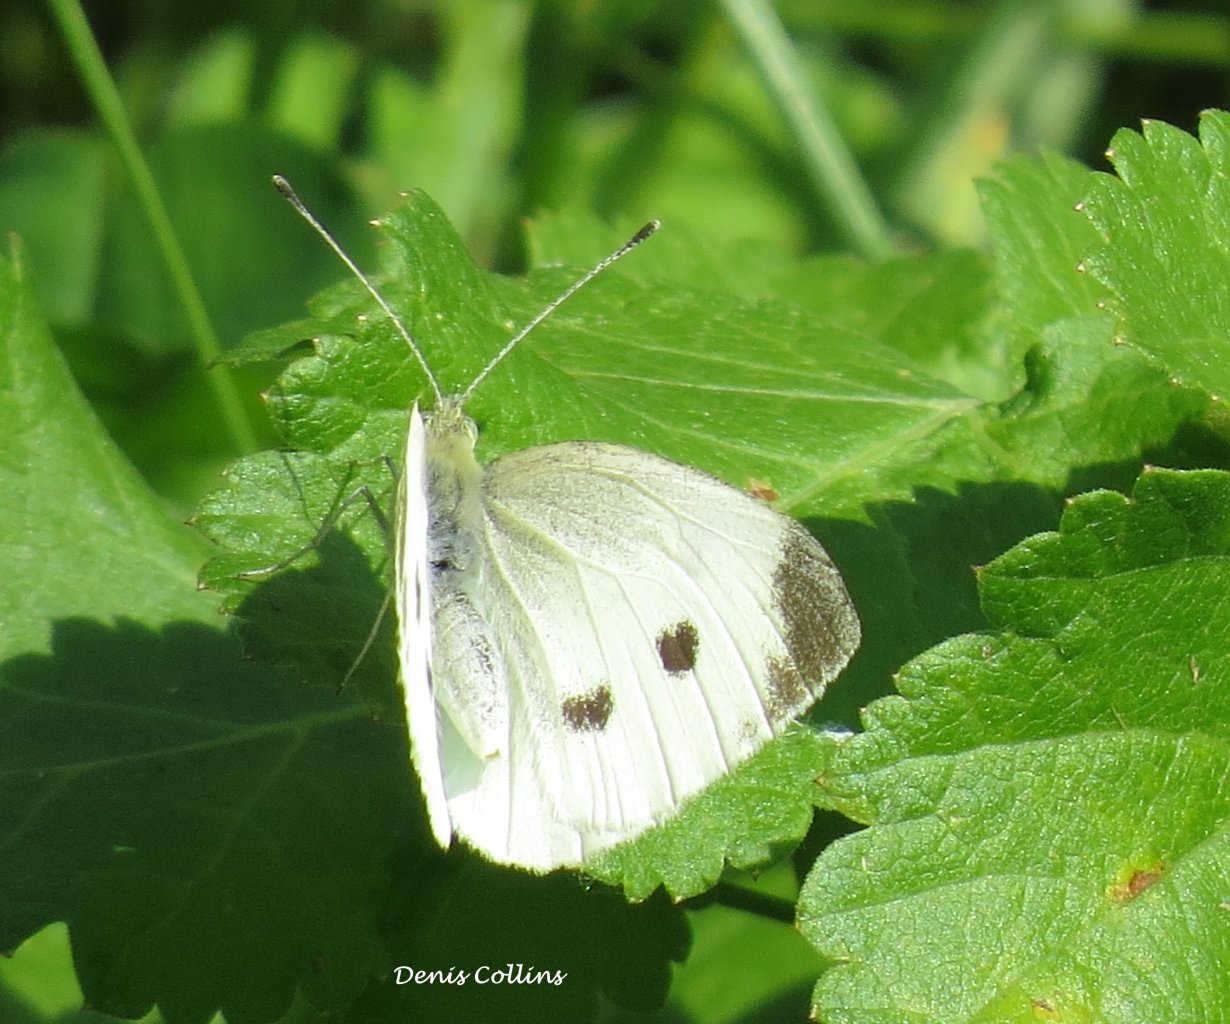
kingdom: Animalia
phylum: Arthropoda
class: Insecta
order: Lepidoptera
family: Pieridae
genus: Pieris
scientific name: Pieris rapae
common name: Cabbage White
